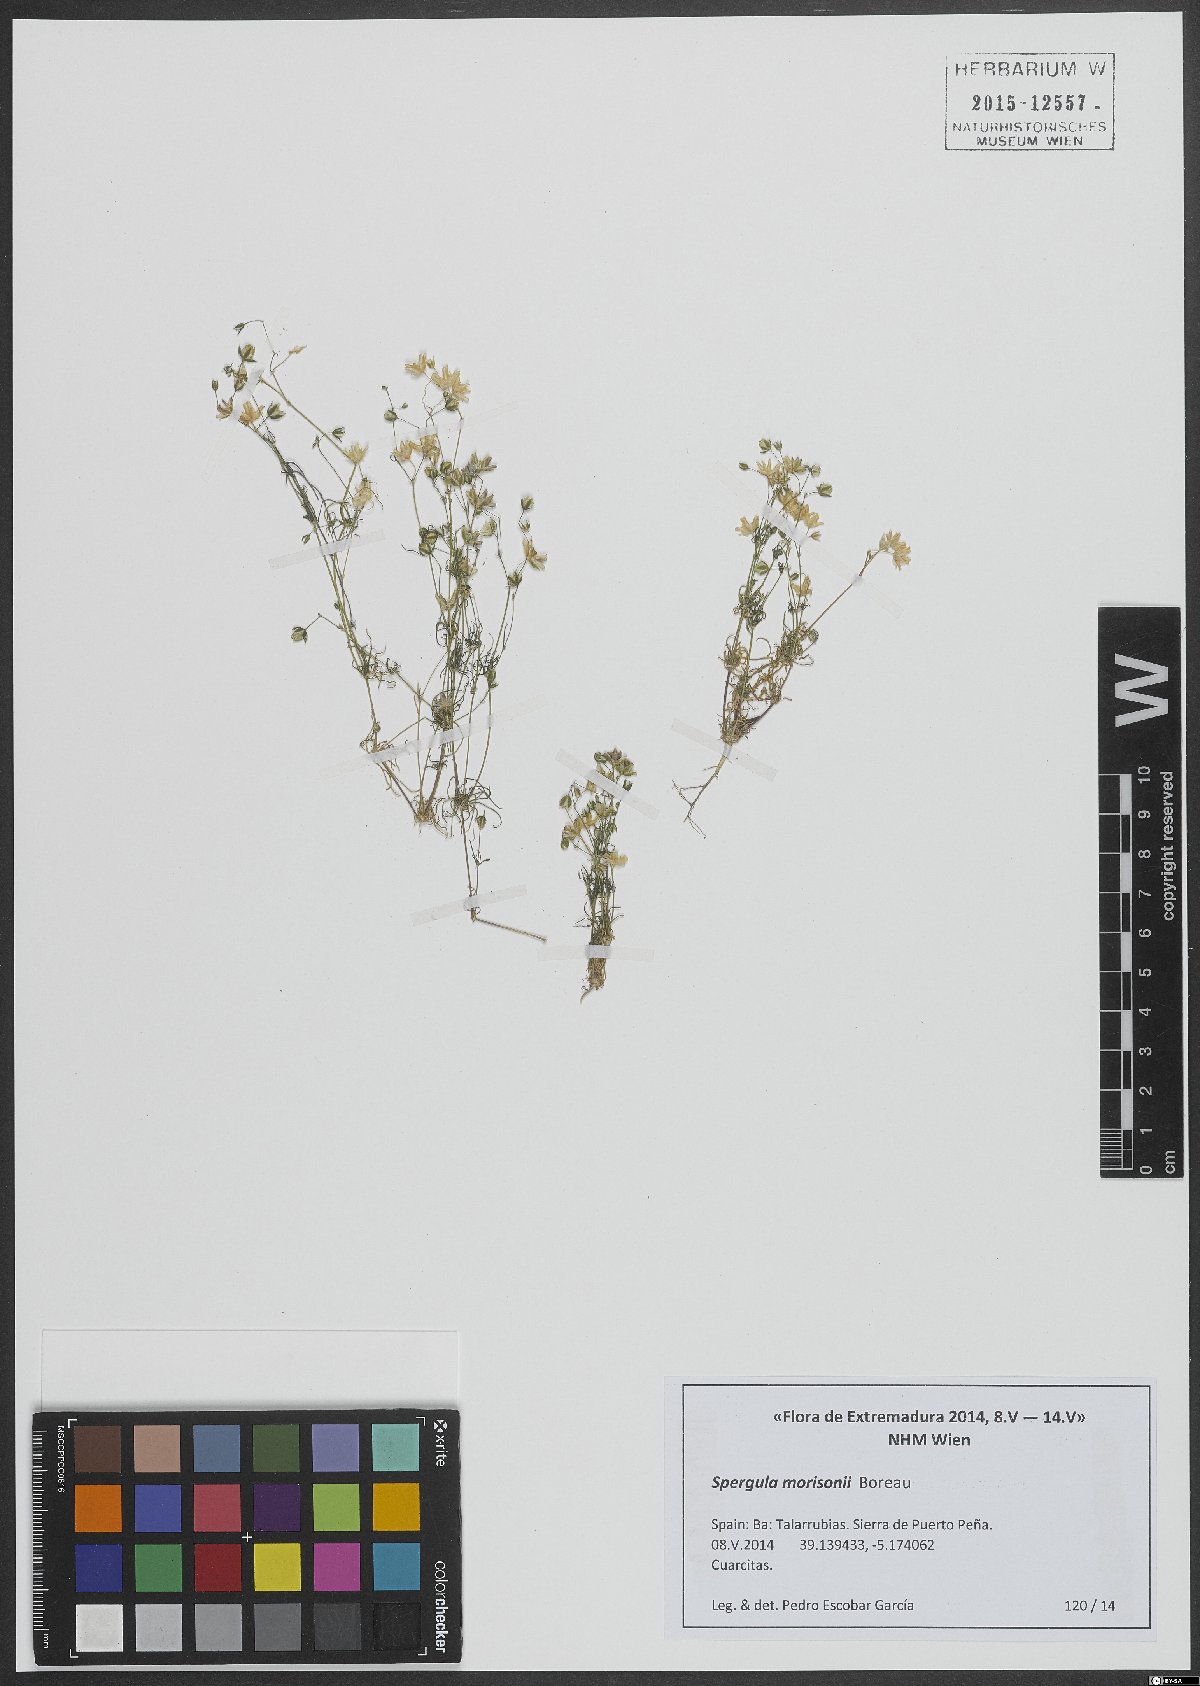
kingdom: Plantae
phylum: Tracheophyta
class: Magnoliopsida
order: Caryophyllales
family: Caryophyllaceae
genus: Spergula
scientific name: Spergula morisonii
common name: Pearlwort spurrey
